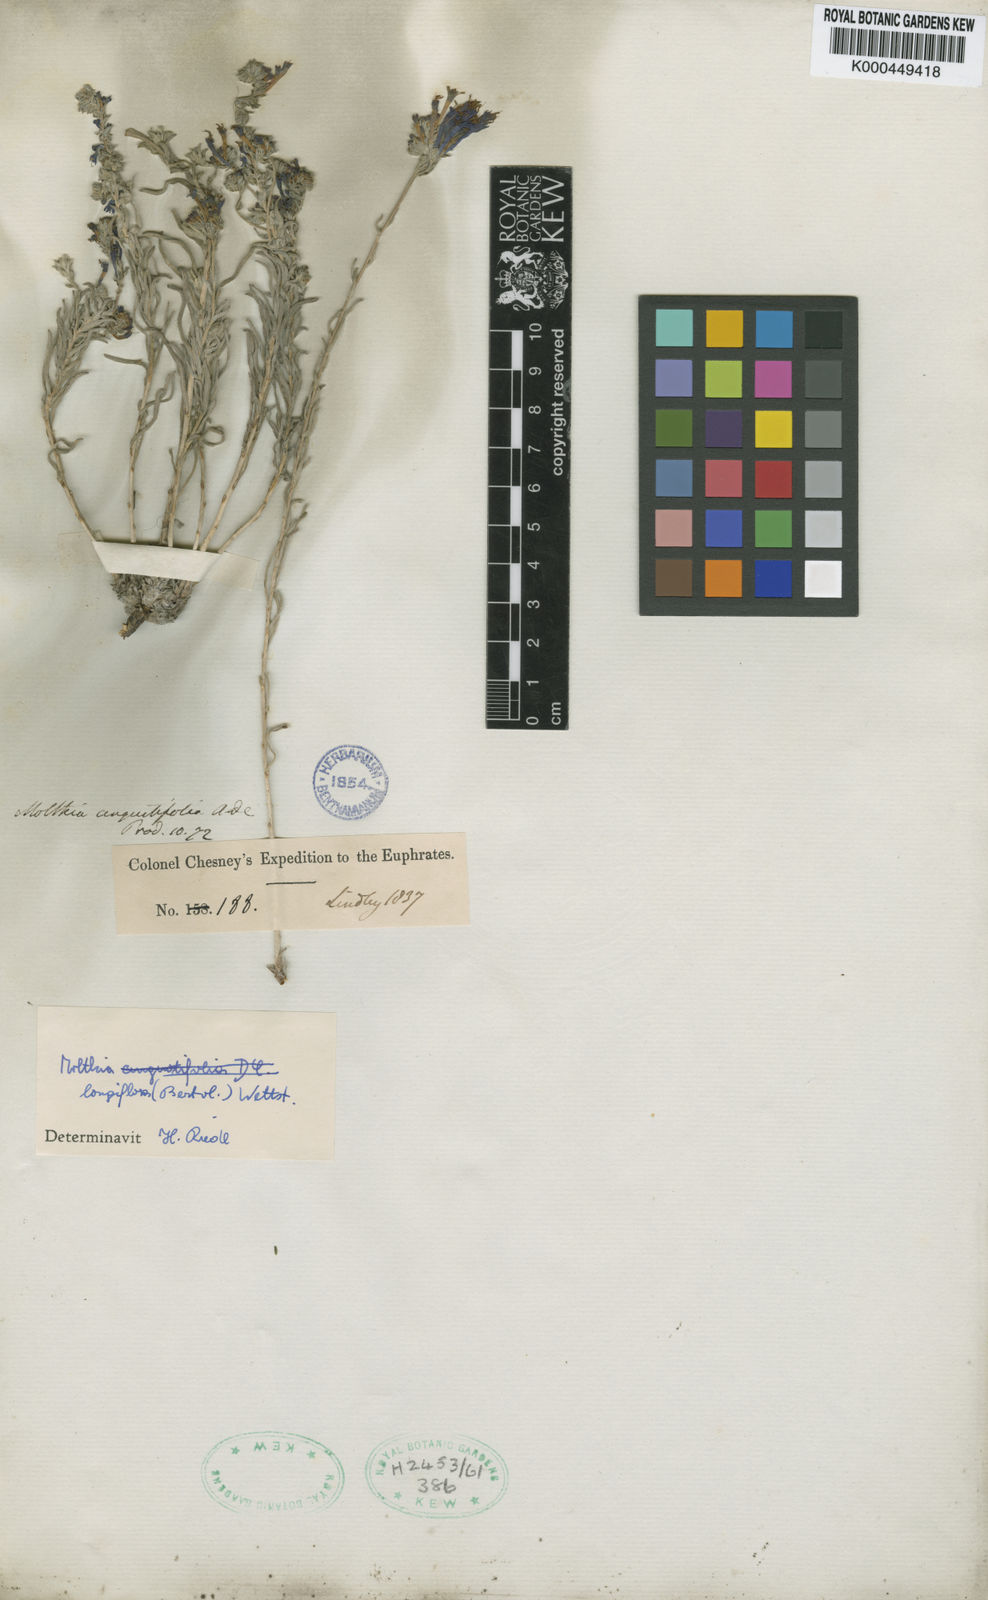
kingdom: Plantae
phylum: Tracheophyta
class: Magnoliopsida
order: Boraginales
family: Boraginaceae
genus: Moltkia
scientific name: Moltkia
